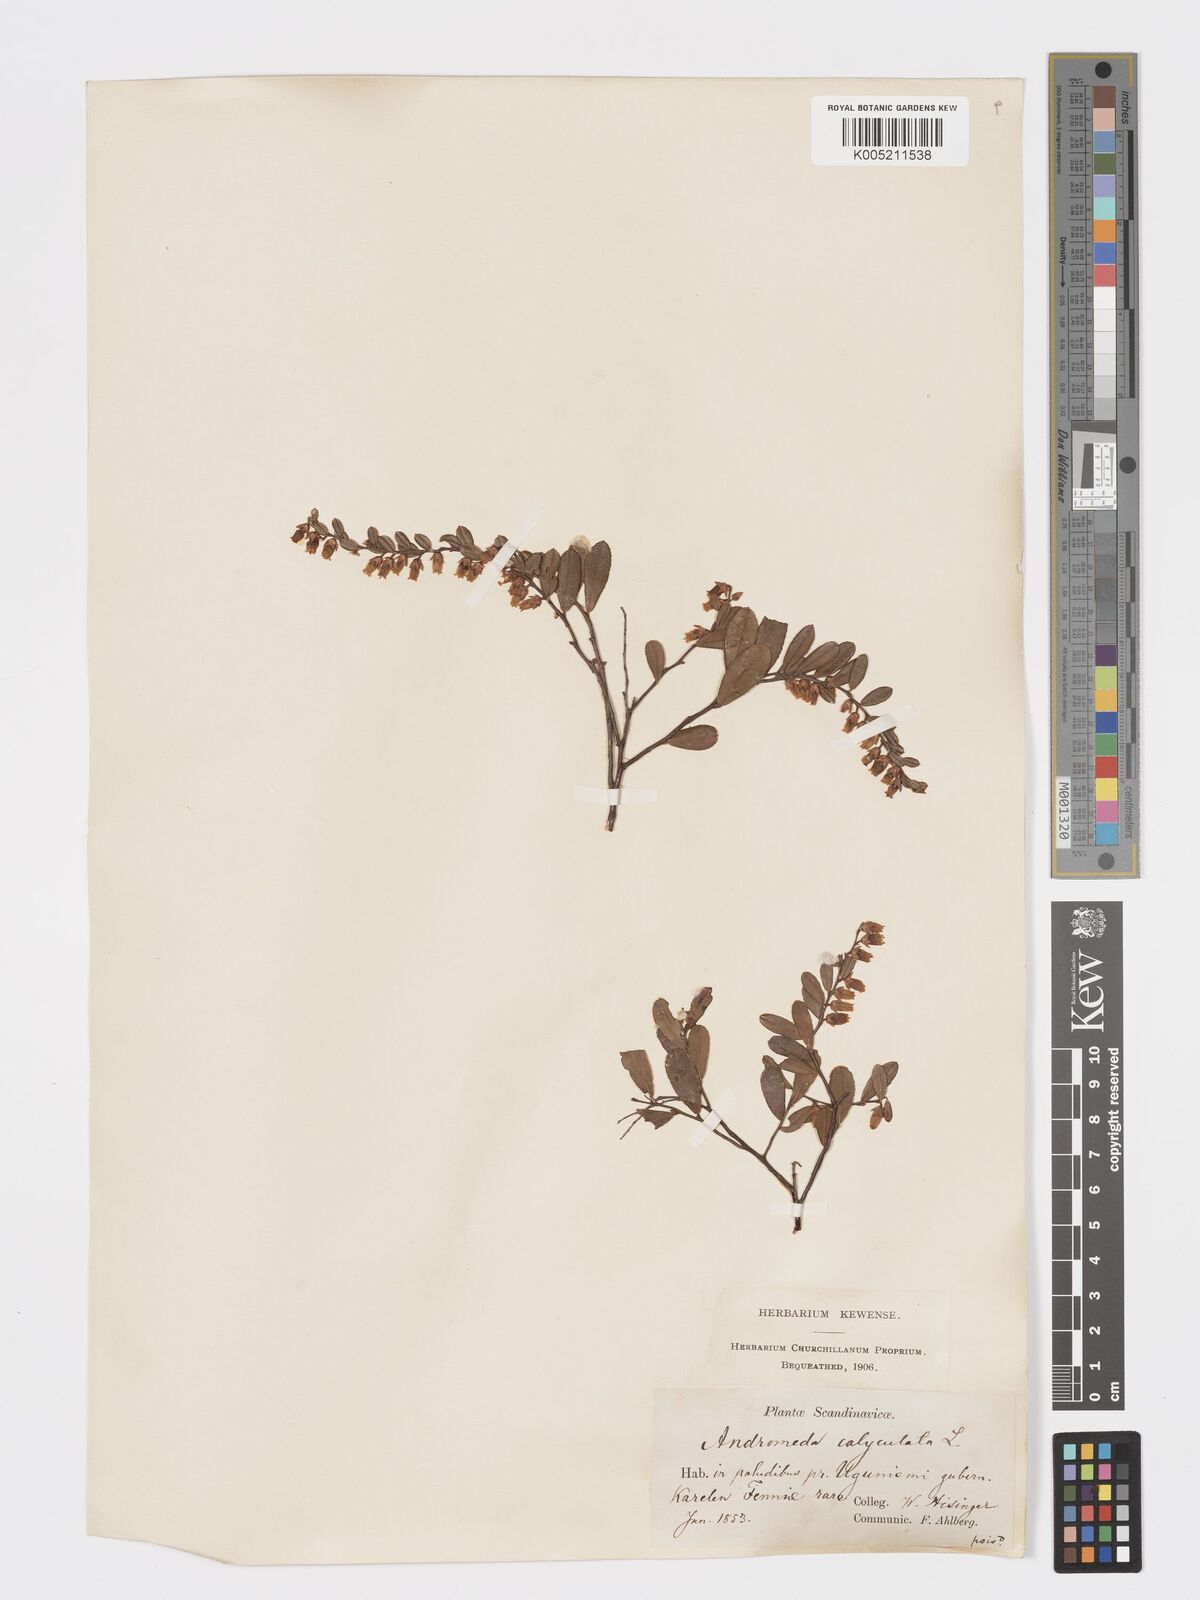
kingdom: Plantae
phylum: Tracheophyta
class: Magnoliopsida
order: Ericales
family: Ericaceae
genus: Chamaedaphne
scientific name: Chamaedaphne calyculata
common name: Leatherleaf
